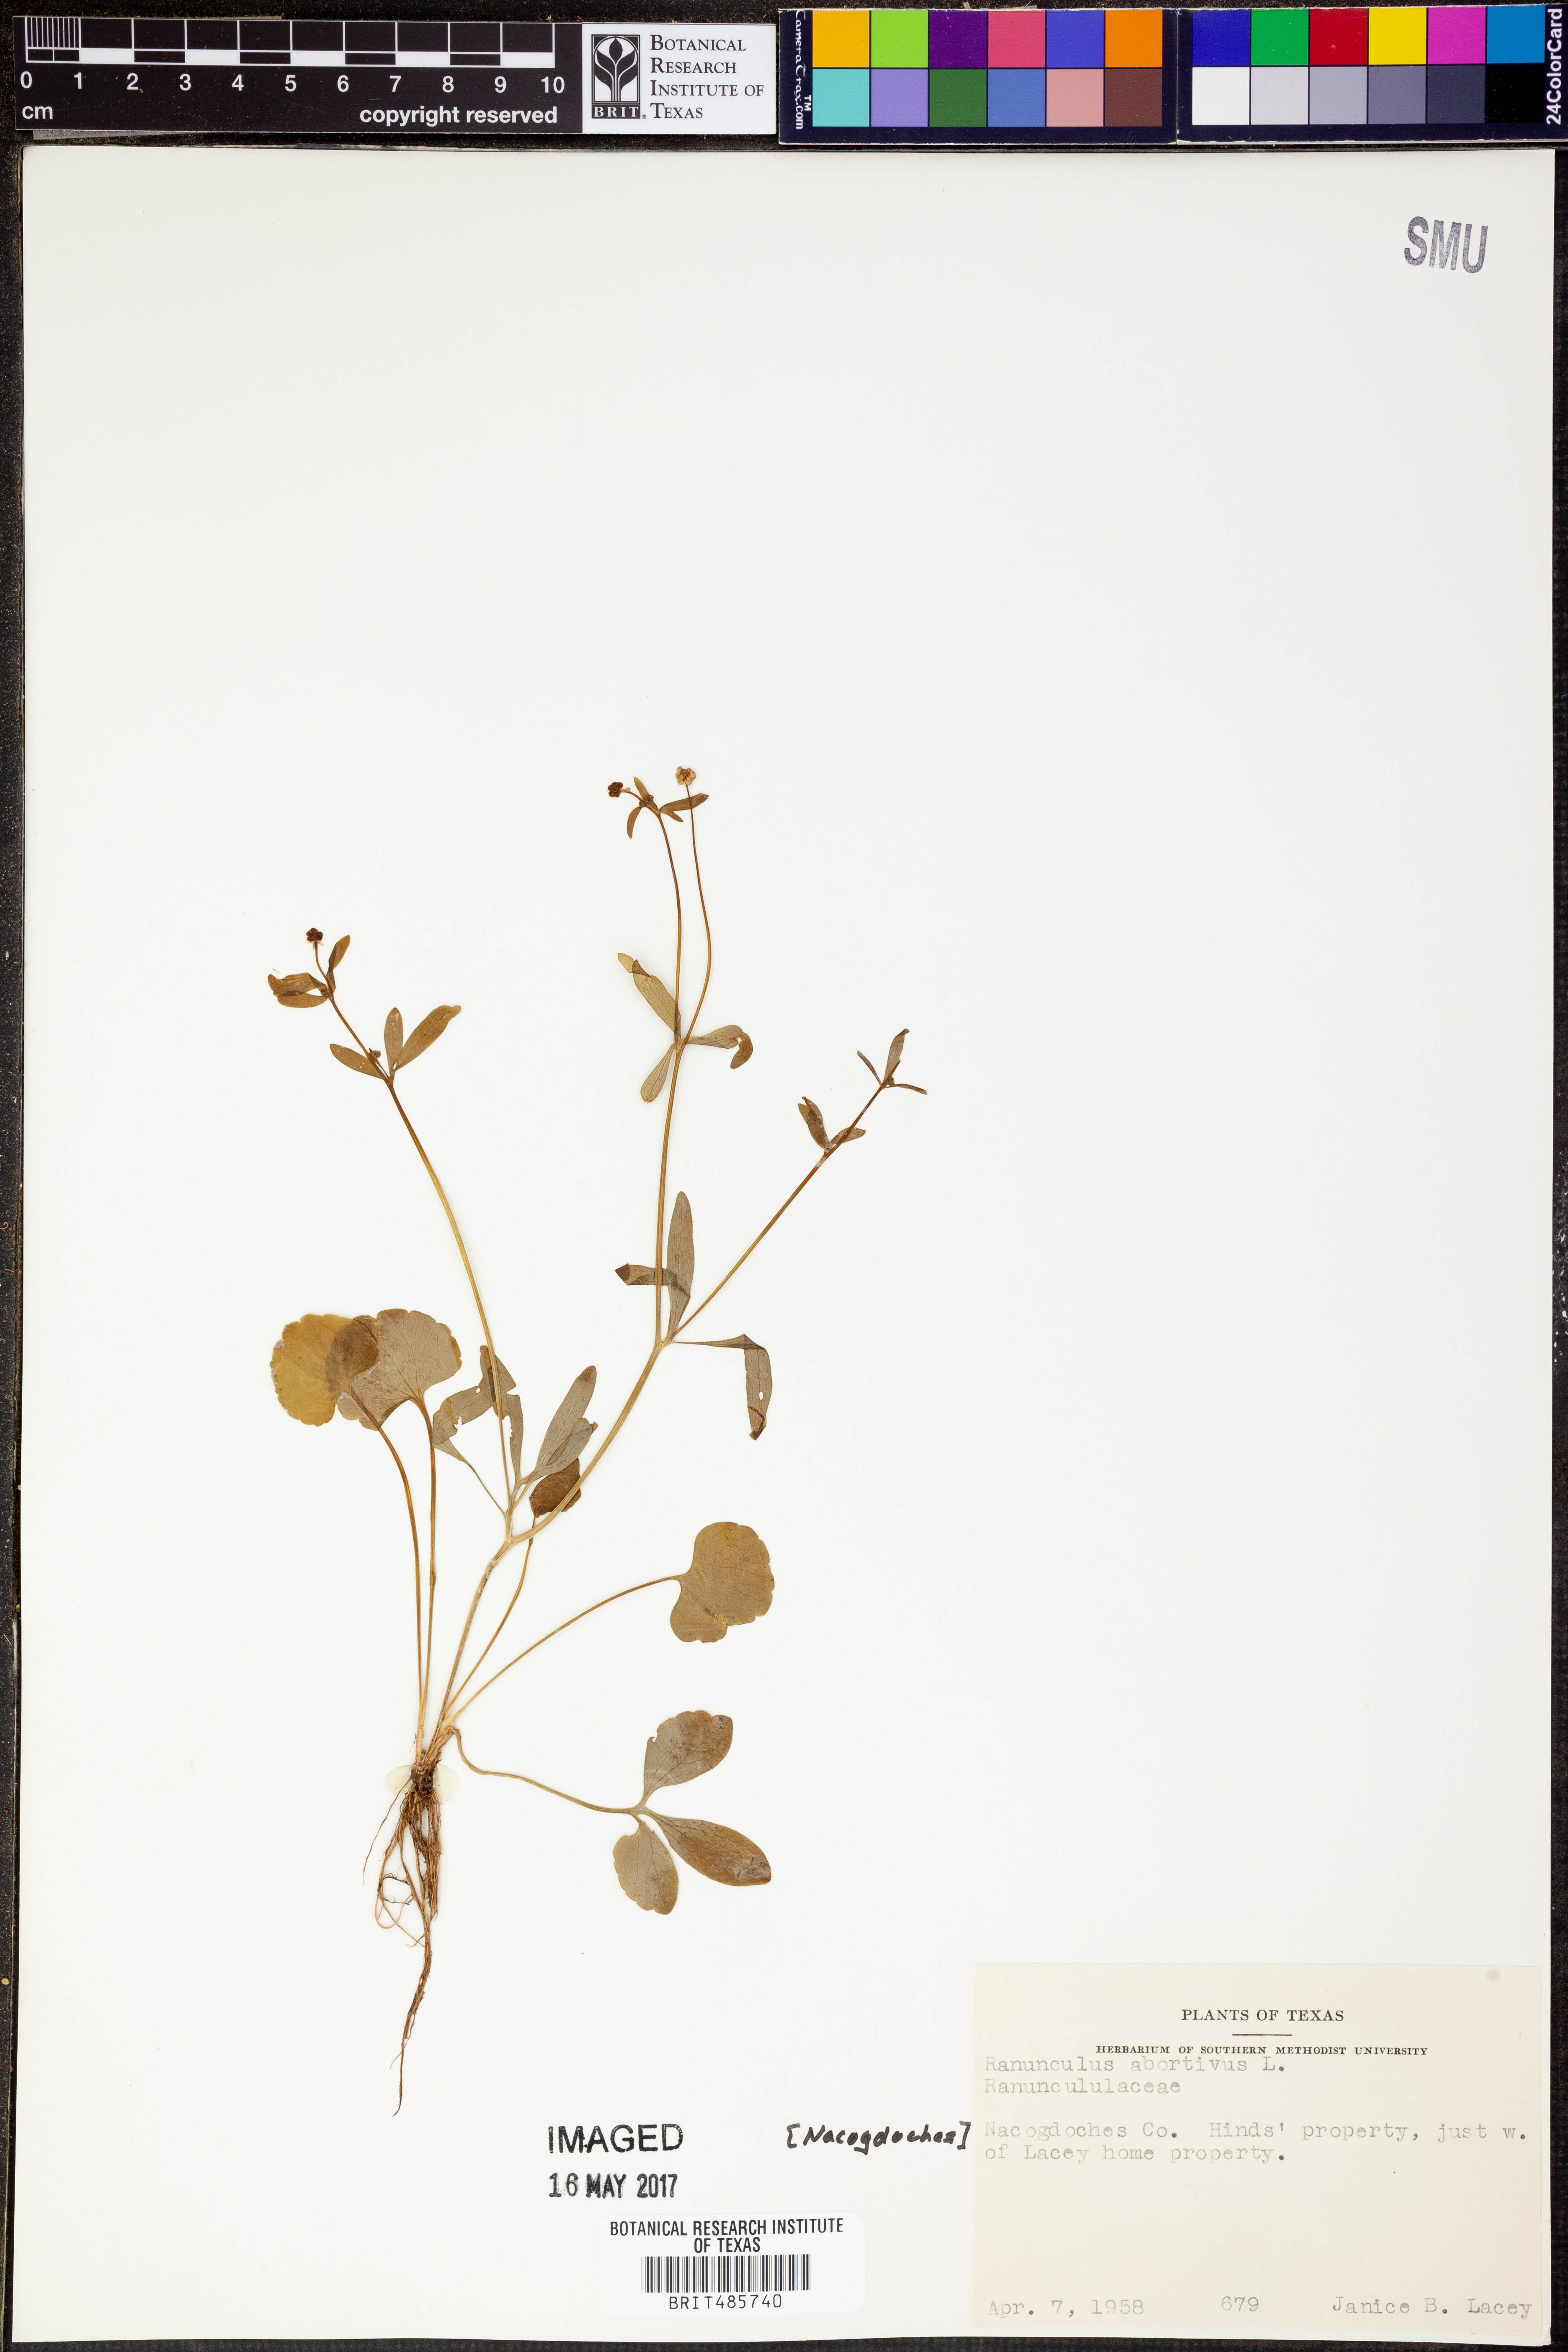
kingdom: Plantae
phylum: Tracheophyta
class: Magnoliopsida
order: Ranunculales
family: Ranunculaceae
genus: Ranunculus
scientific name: Ranunculus abortivus
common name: Early wood buttercup
